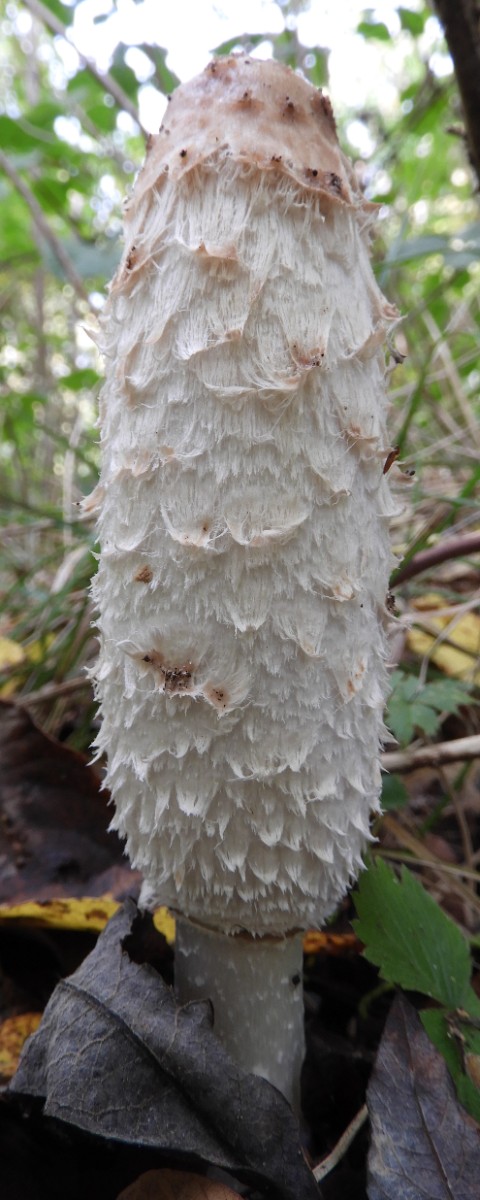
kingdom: Fungi
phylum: Basidiomycota
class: Agaricomycetes
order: Agaricales
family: Agaricaceae
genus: Coprinus
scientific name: Coprinus comatus
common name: stor parykhat
